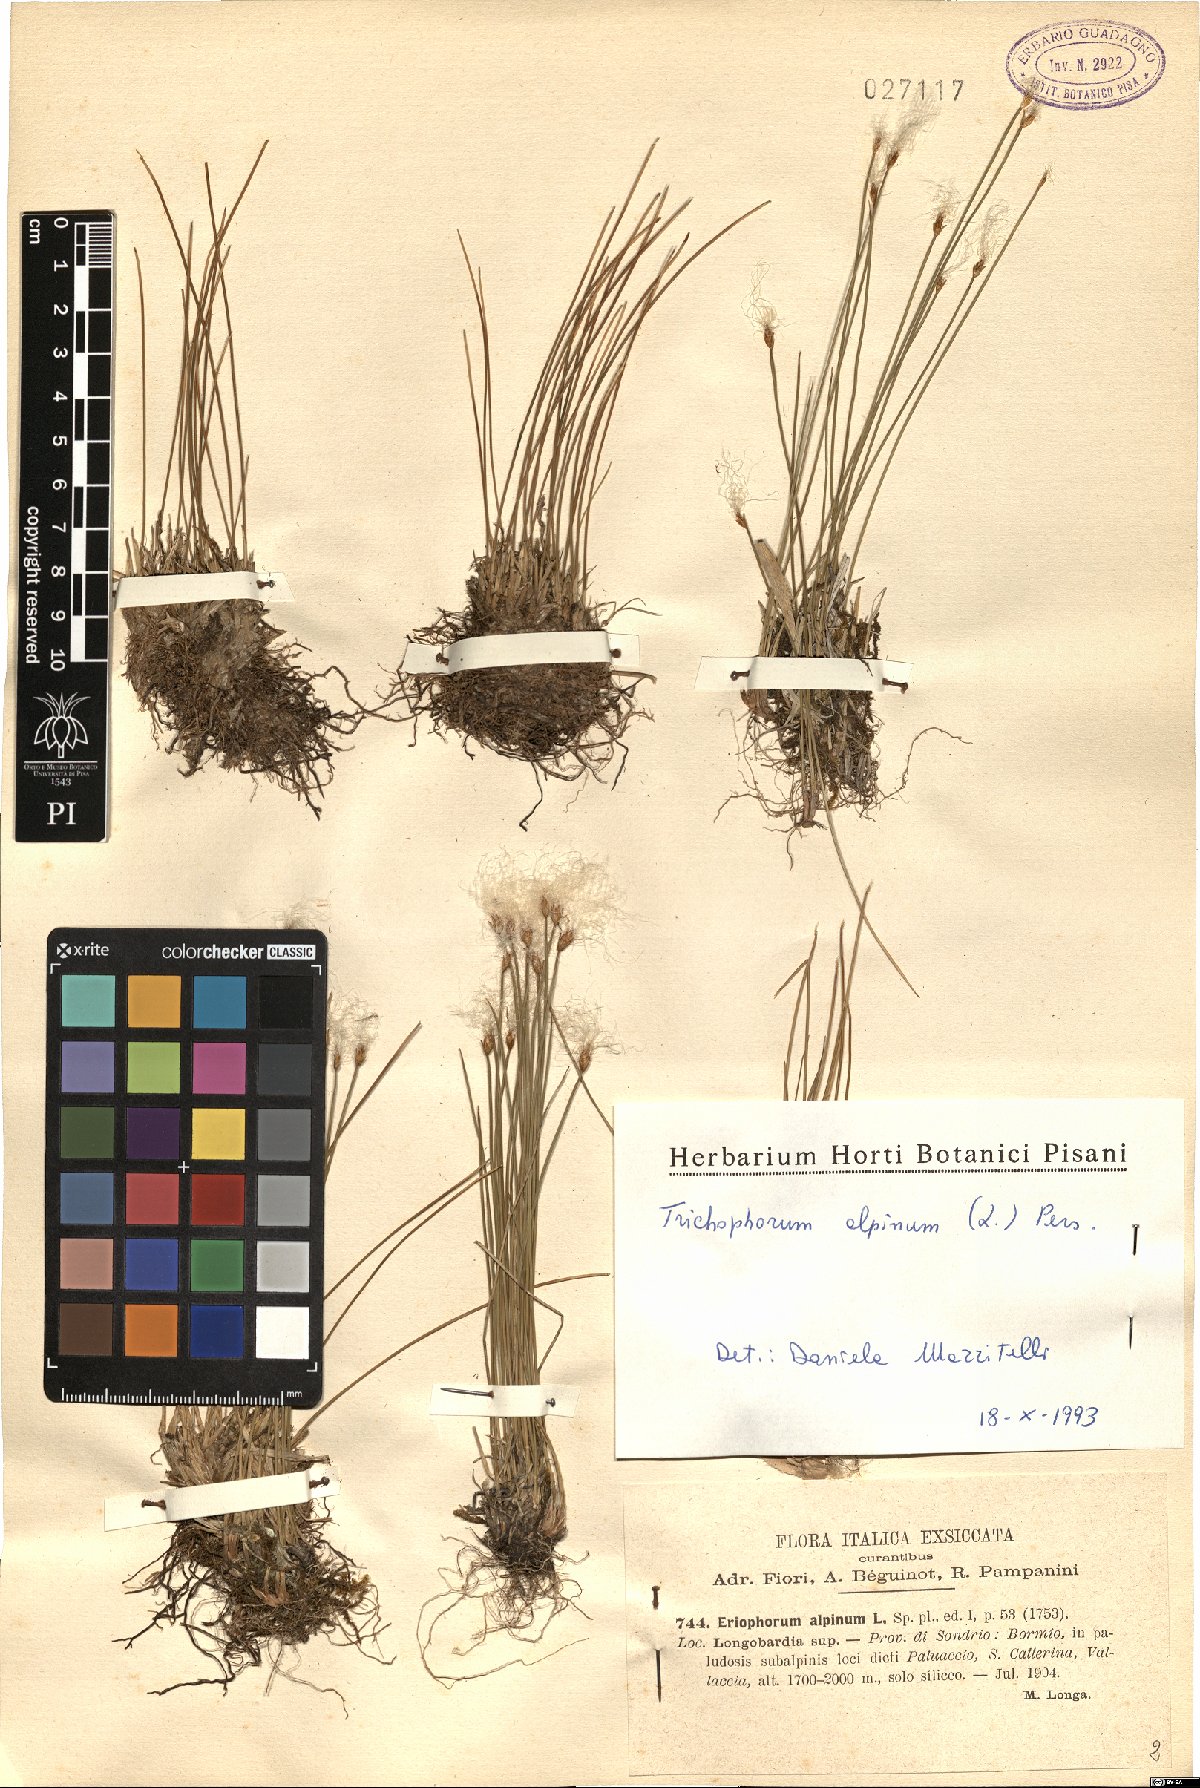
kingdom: Plantae
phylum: Tracheophyta
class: Liliopsida
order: Poales
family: Cyperaceae
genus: Trichophorum
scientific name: Trichophorum alpinum
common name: Alpine bulrush
